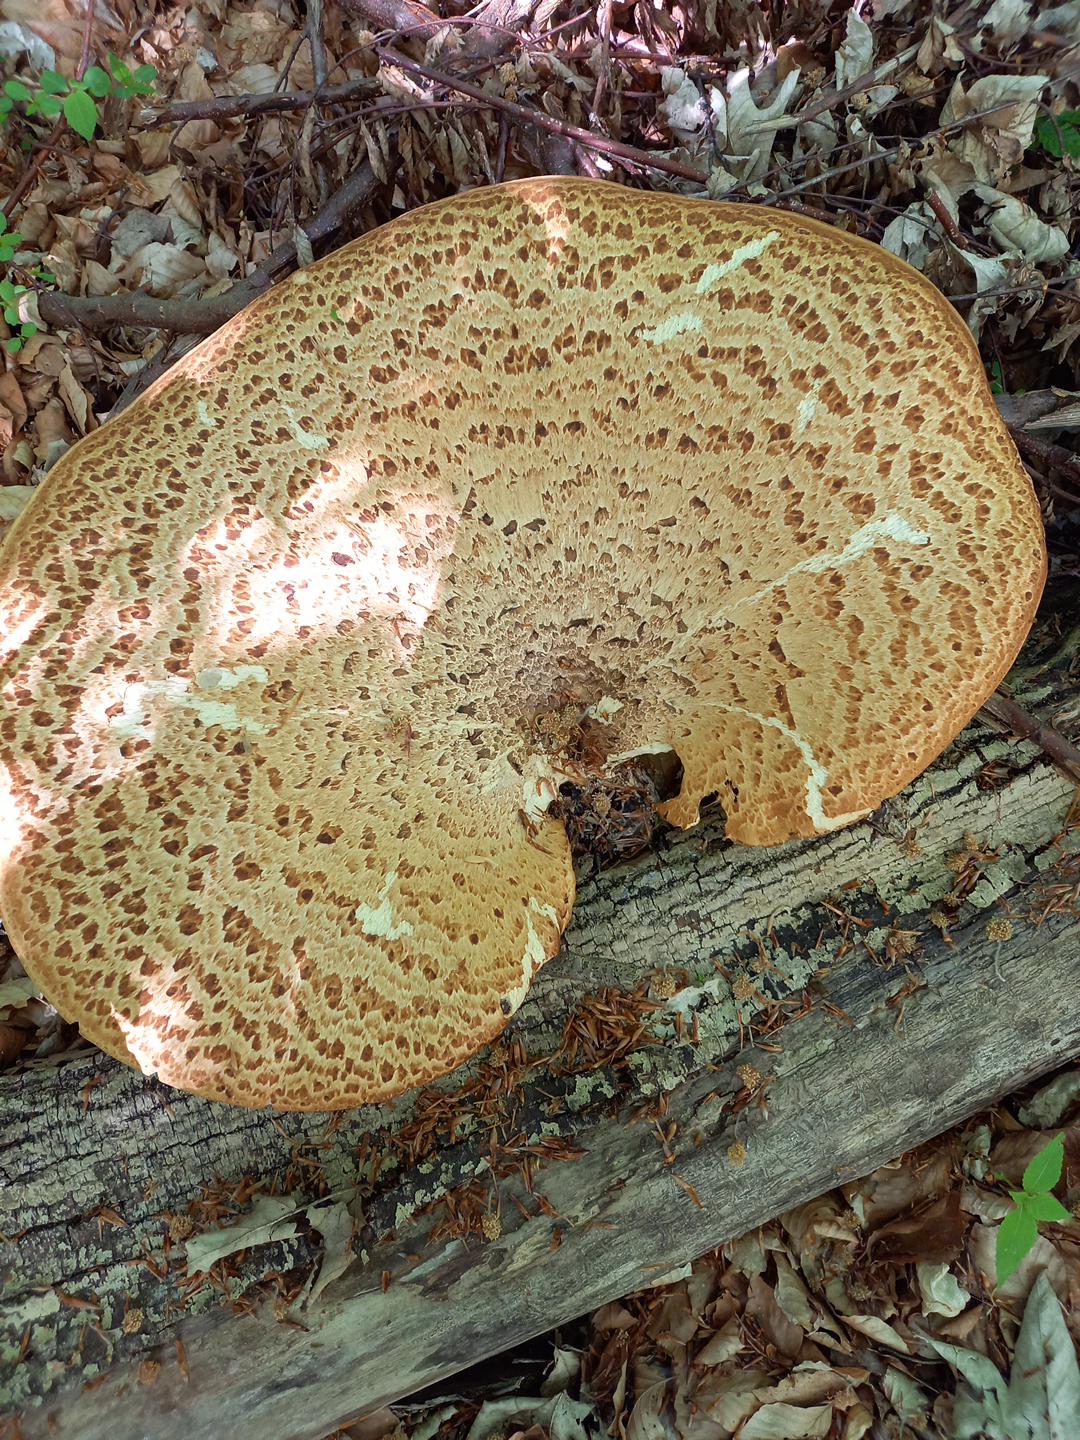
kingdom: Fungi
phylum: Basidiomycota
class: Agaricomycetes
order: Polyporales
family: Polyporaceae
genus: Cerioporus
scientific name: Cerioporus squamosus
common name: skællet stilkporesvamp
